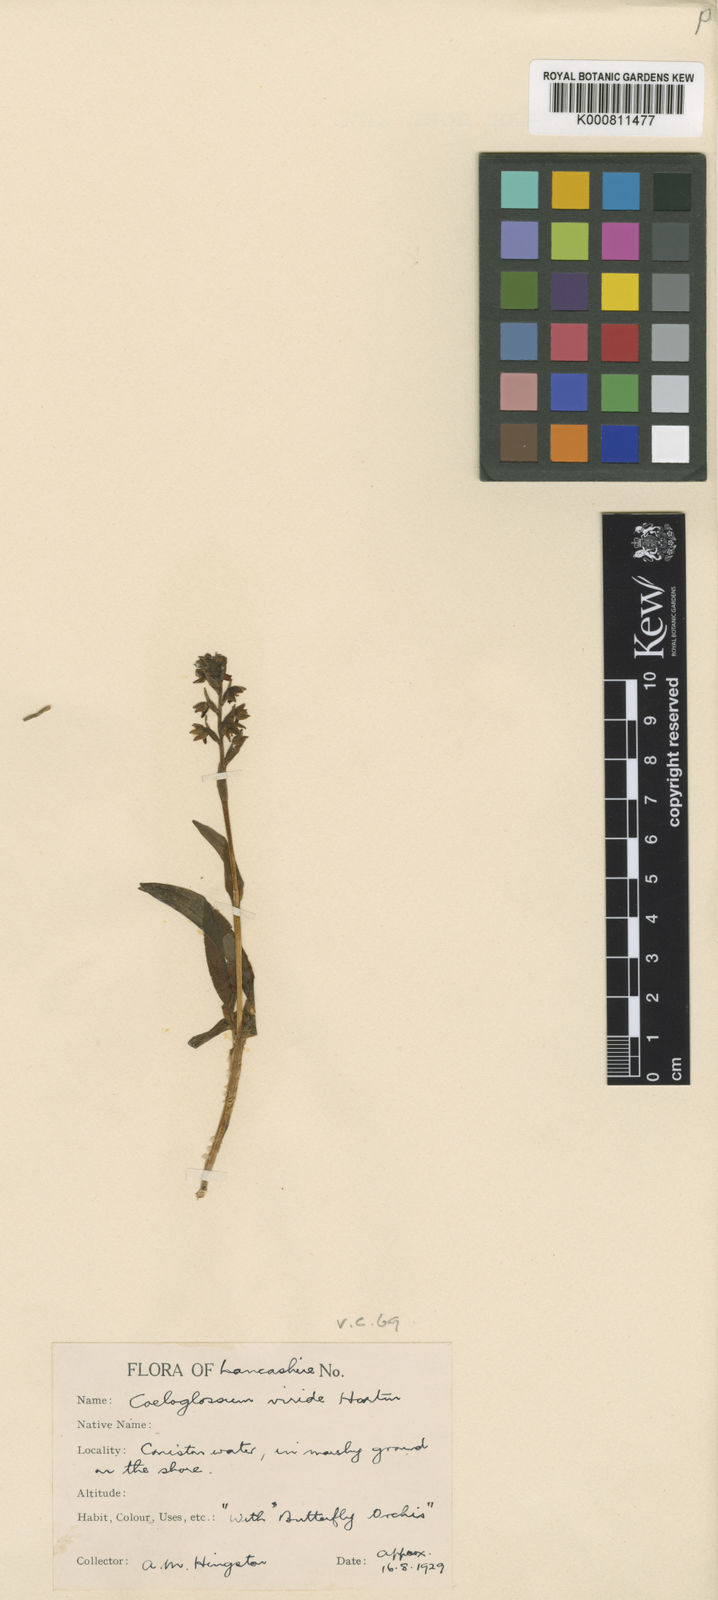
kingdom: Plantae
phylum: Tracheophyta
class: Liliopsida
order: Asparagales
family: Orchidaceae
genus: Dactylorhiza
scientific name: Dactylorhiza viridis
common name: Longbract frog orchid
